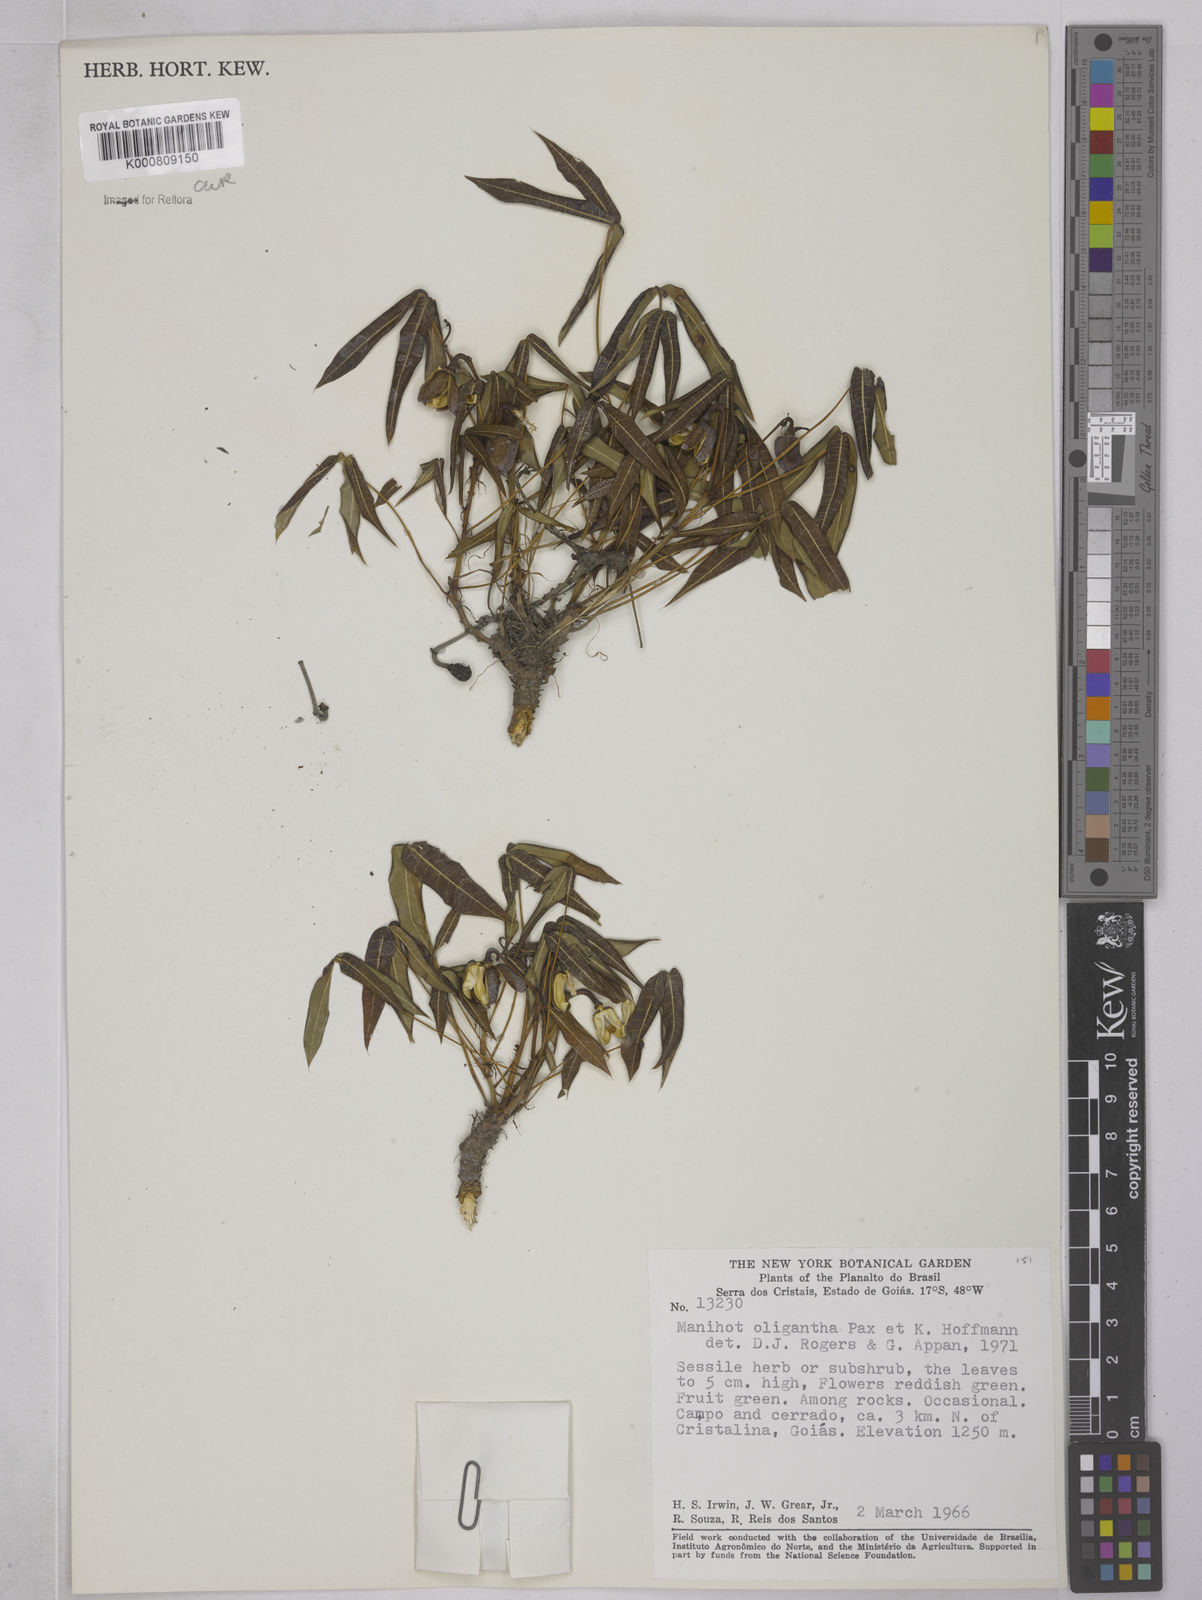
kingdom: Plantae
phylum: Tracheophyta
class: Magnoliopsida
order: Malpighiales
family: Euphorbiaceae
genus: Manihot
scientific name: Manihot oligantha
